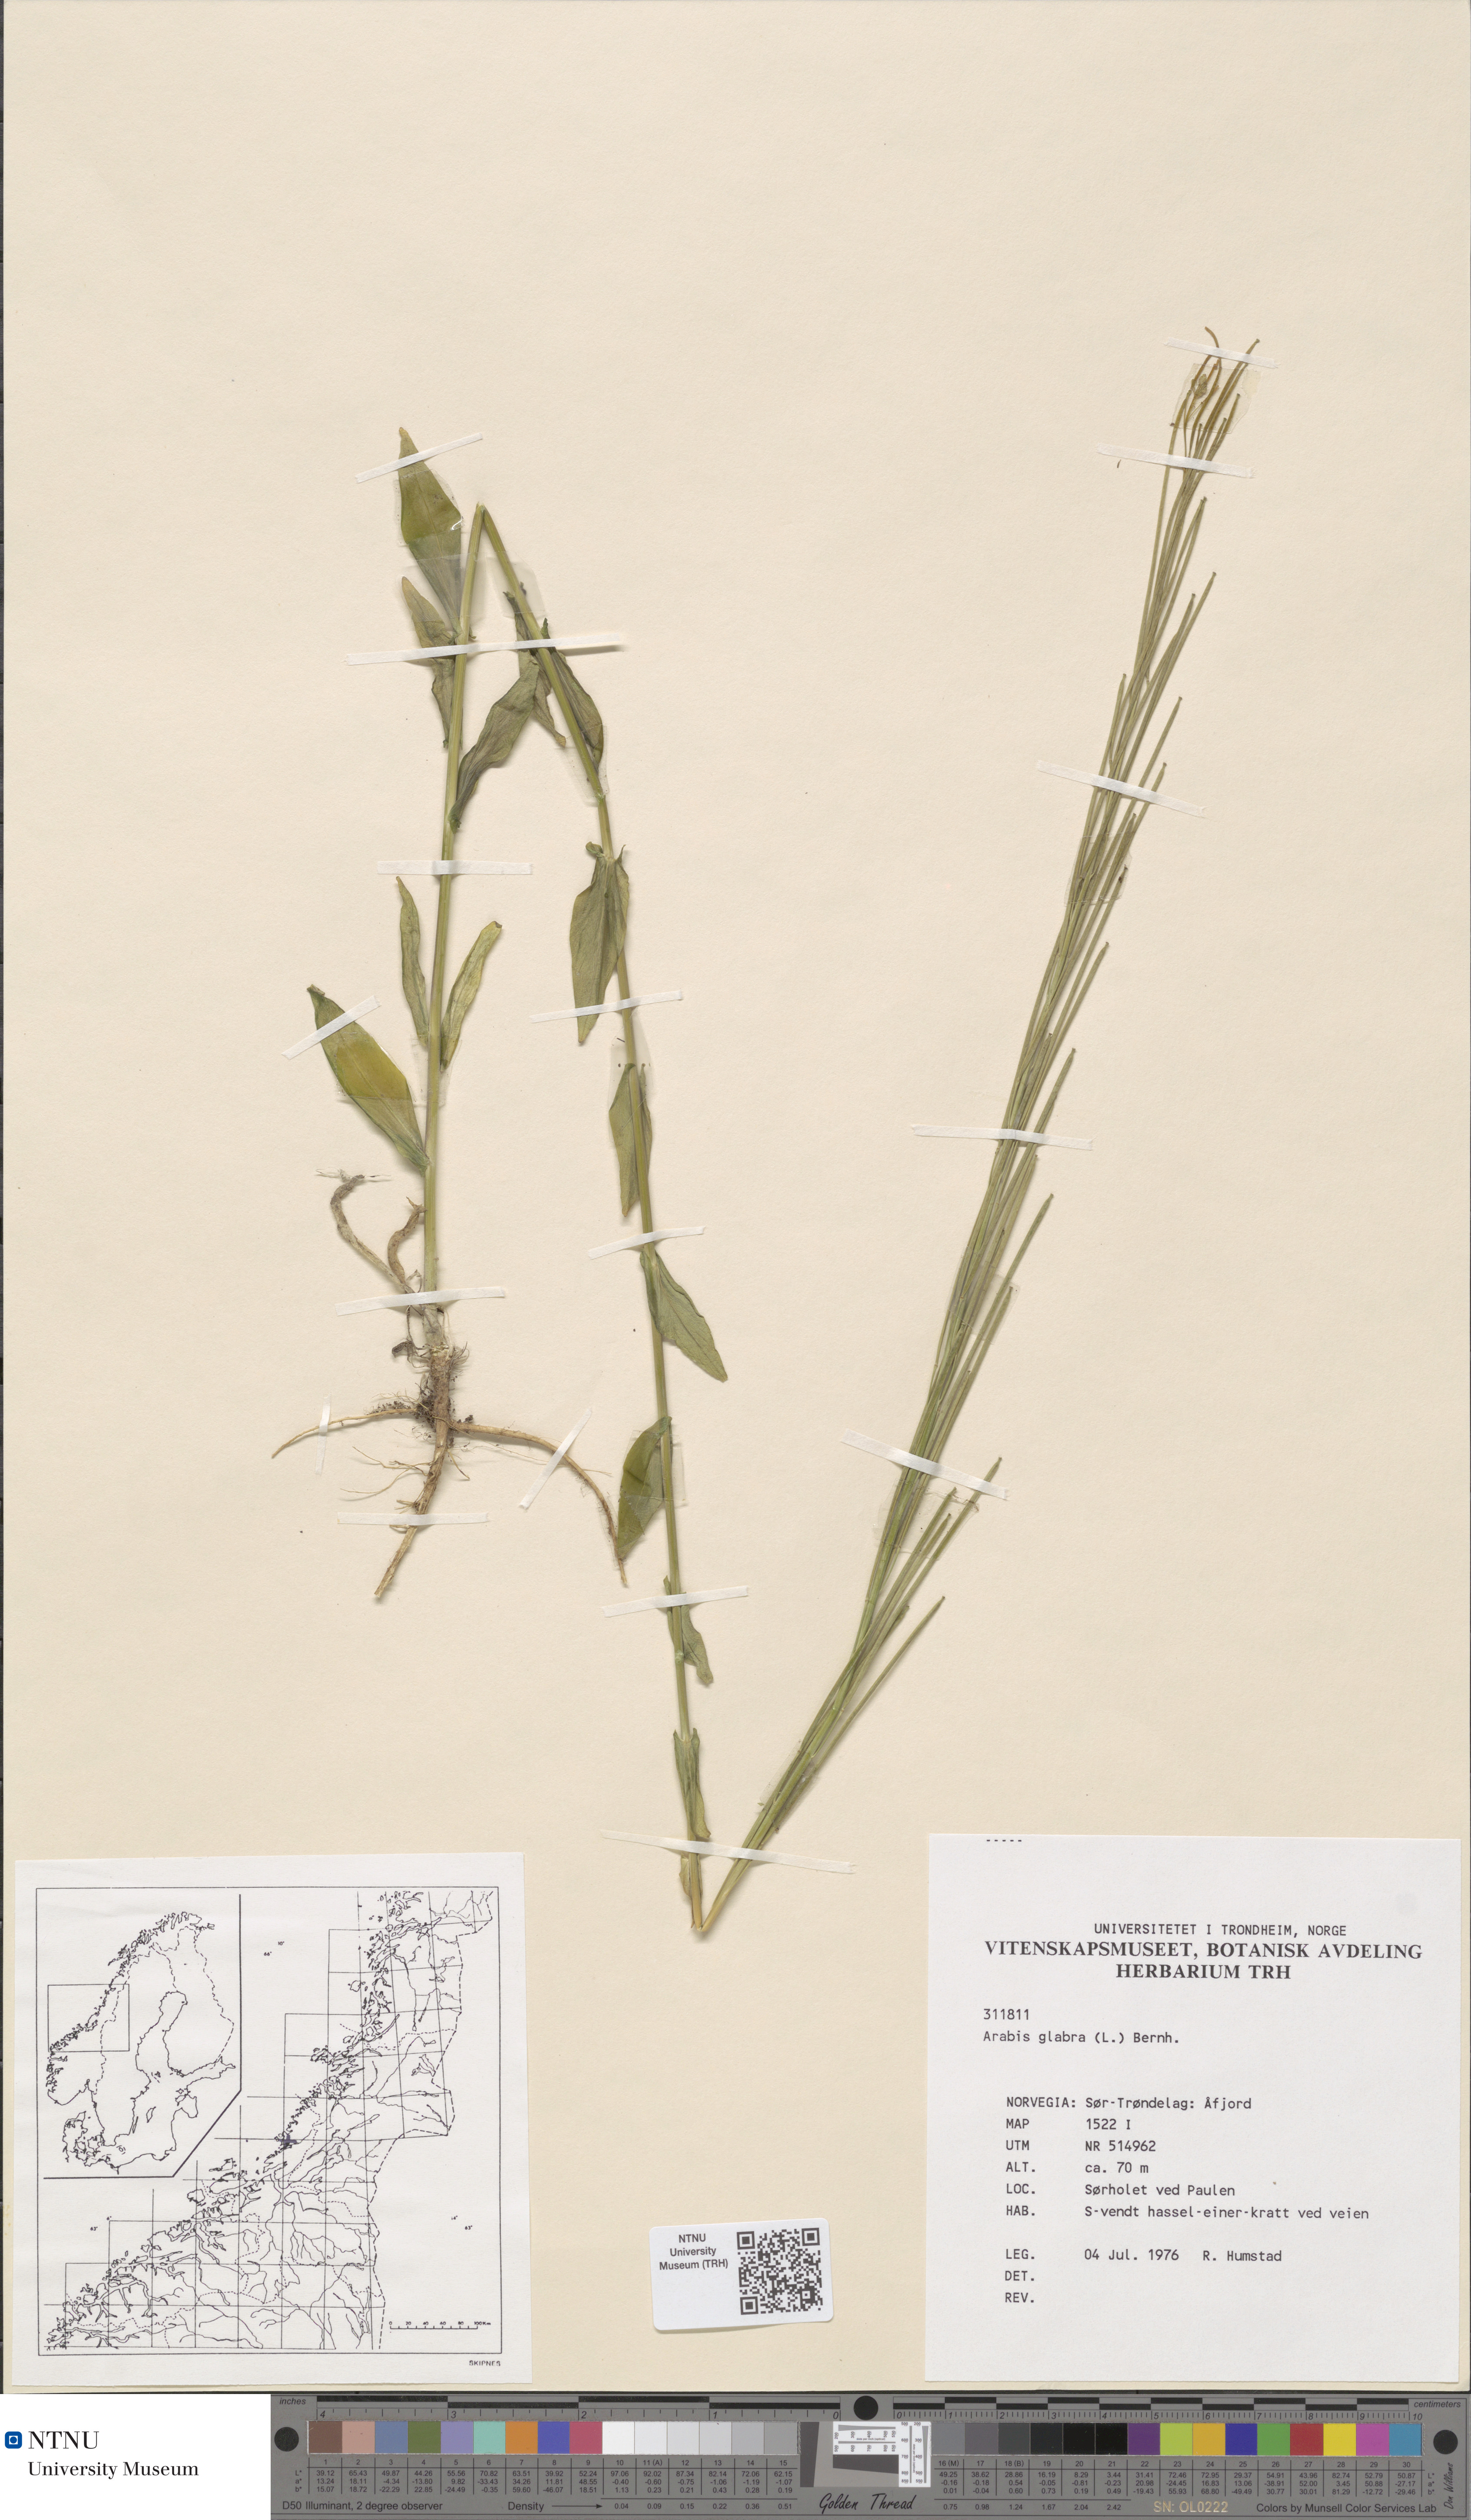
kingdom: Plantae
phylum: Tracheophyta
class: Magnoliopsida
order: Brassicales
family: Brassicaceae
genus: Turritis
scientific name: Turritis glabra
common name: Tower rockcress
